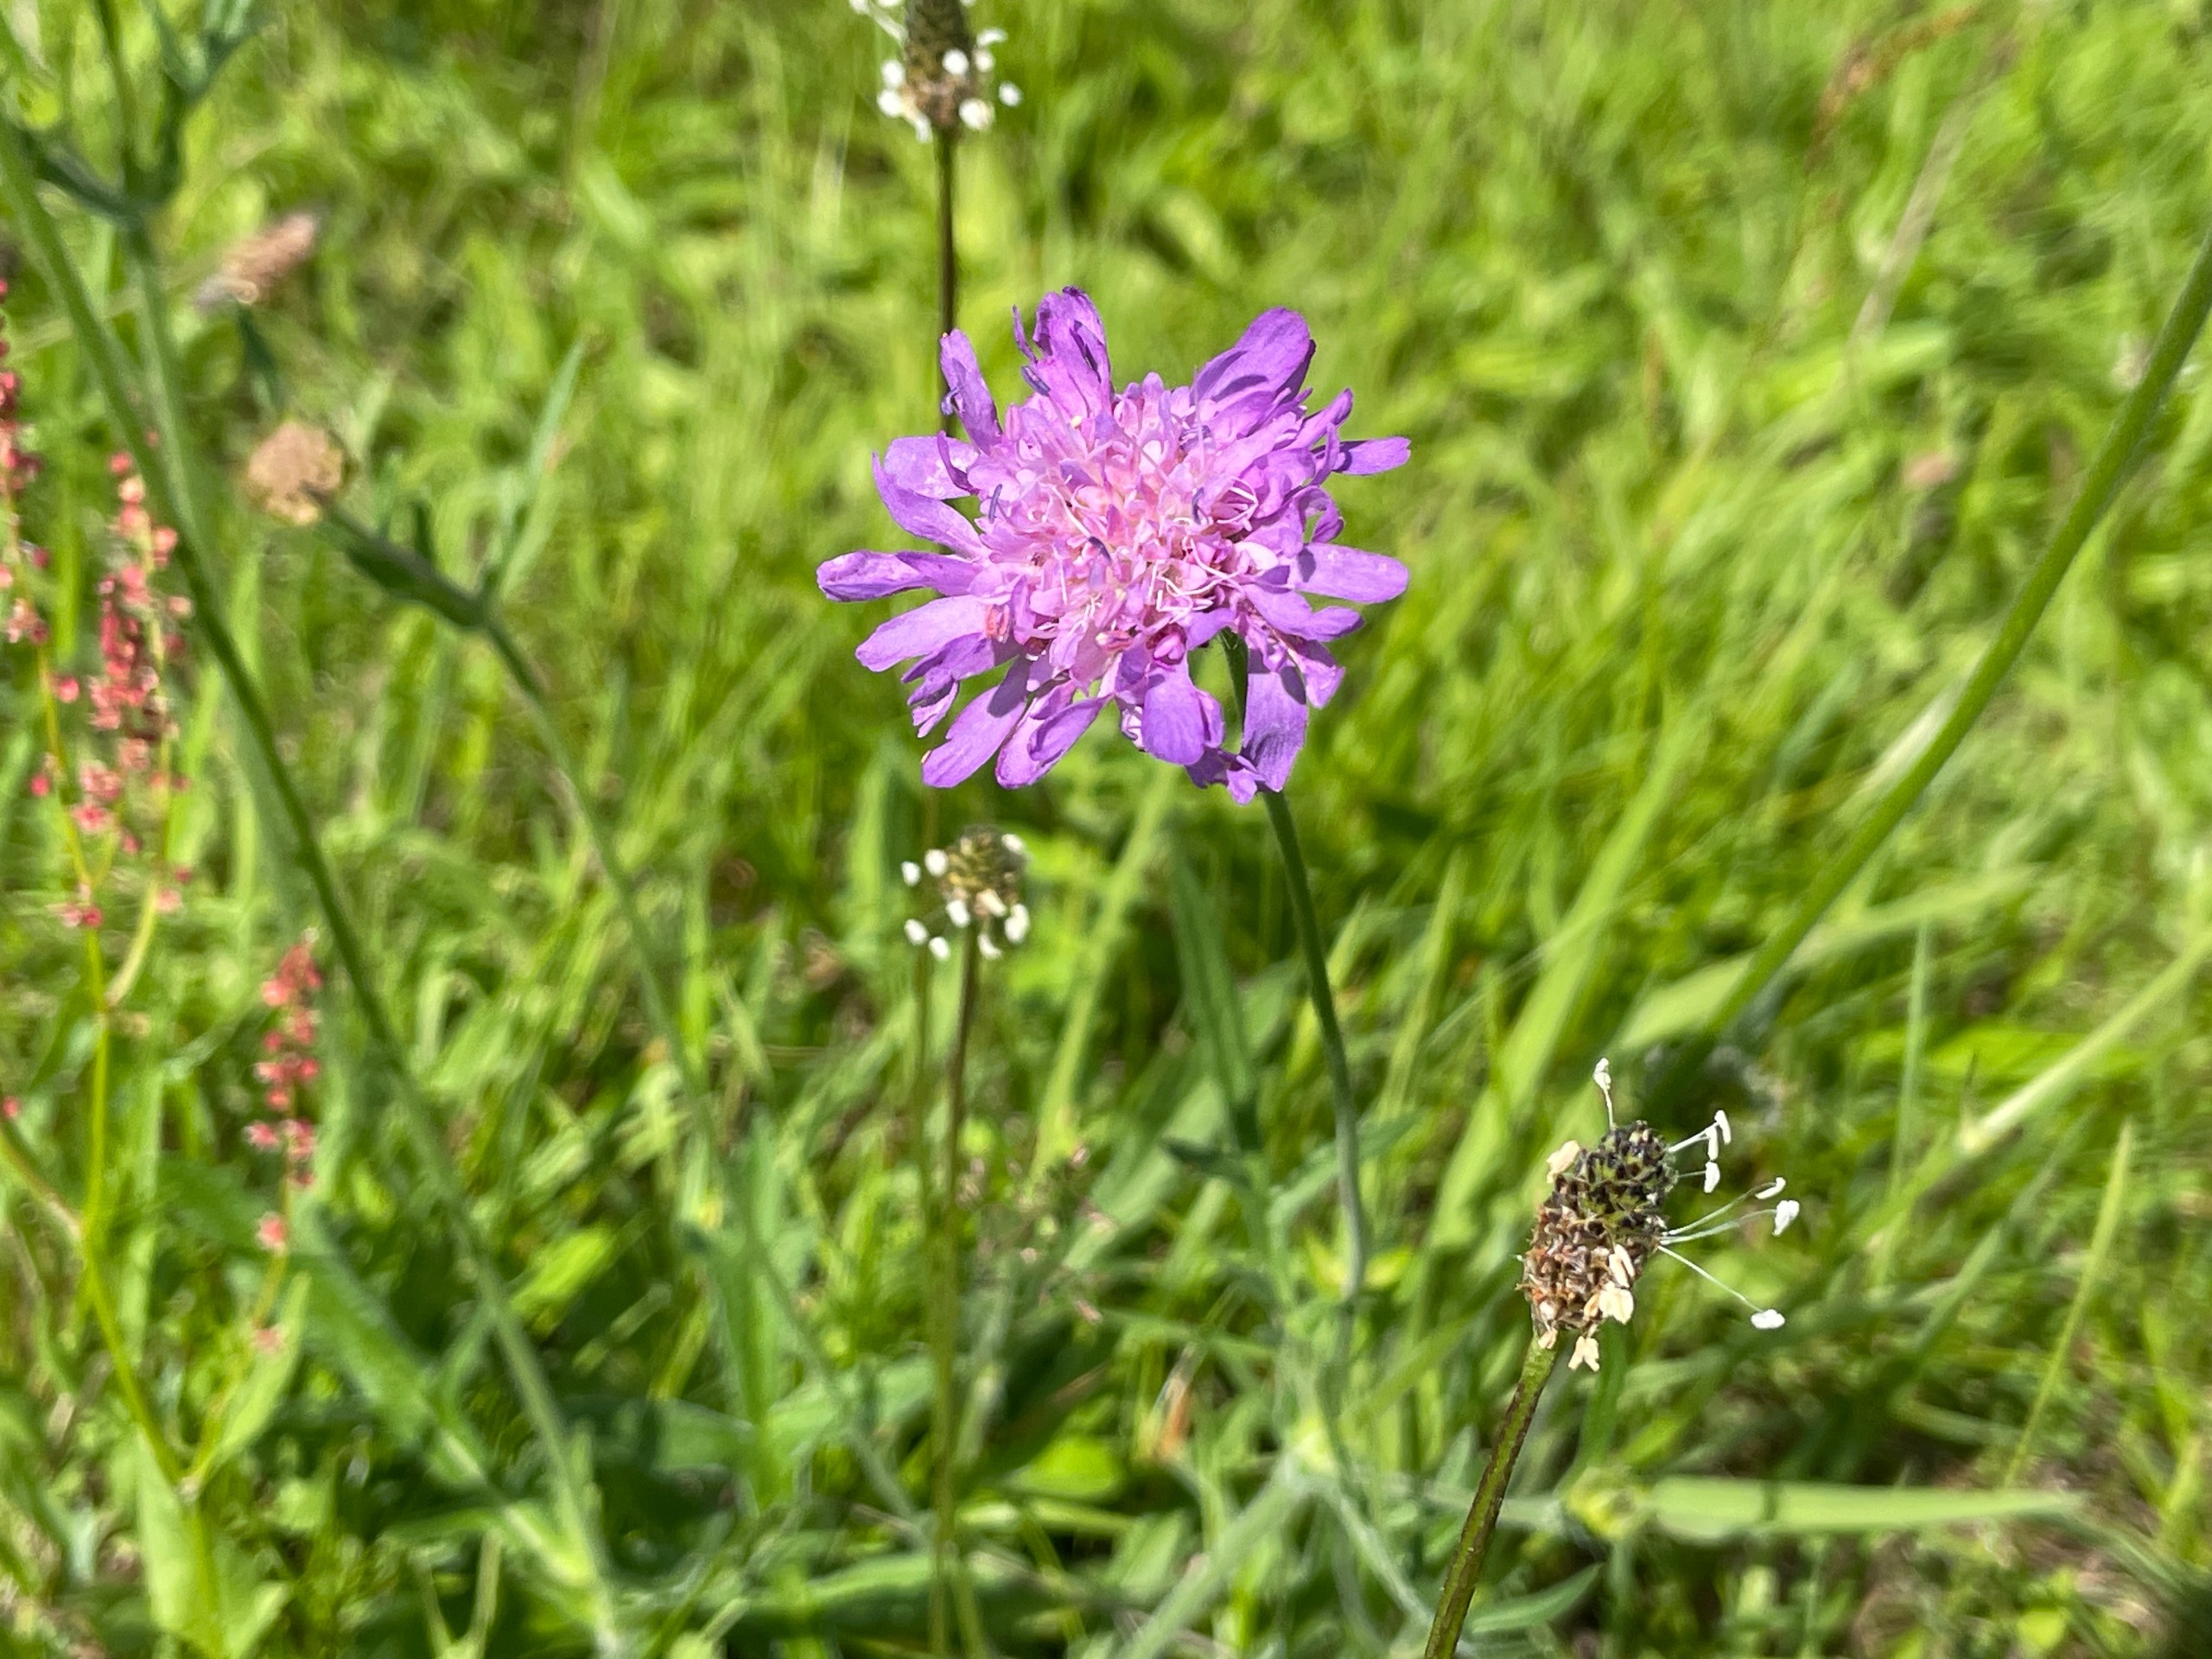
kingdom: Plantae
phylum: Tracheophyta
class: Magnoliopsida
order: Dipsacales
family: Caprifoliaceae
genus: Knautia
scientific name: Knautia arvensis
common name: Blåhat
